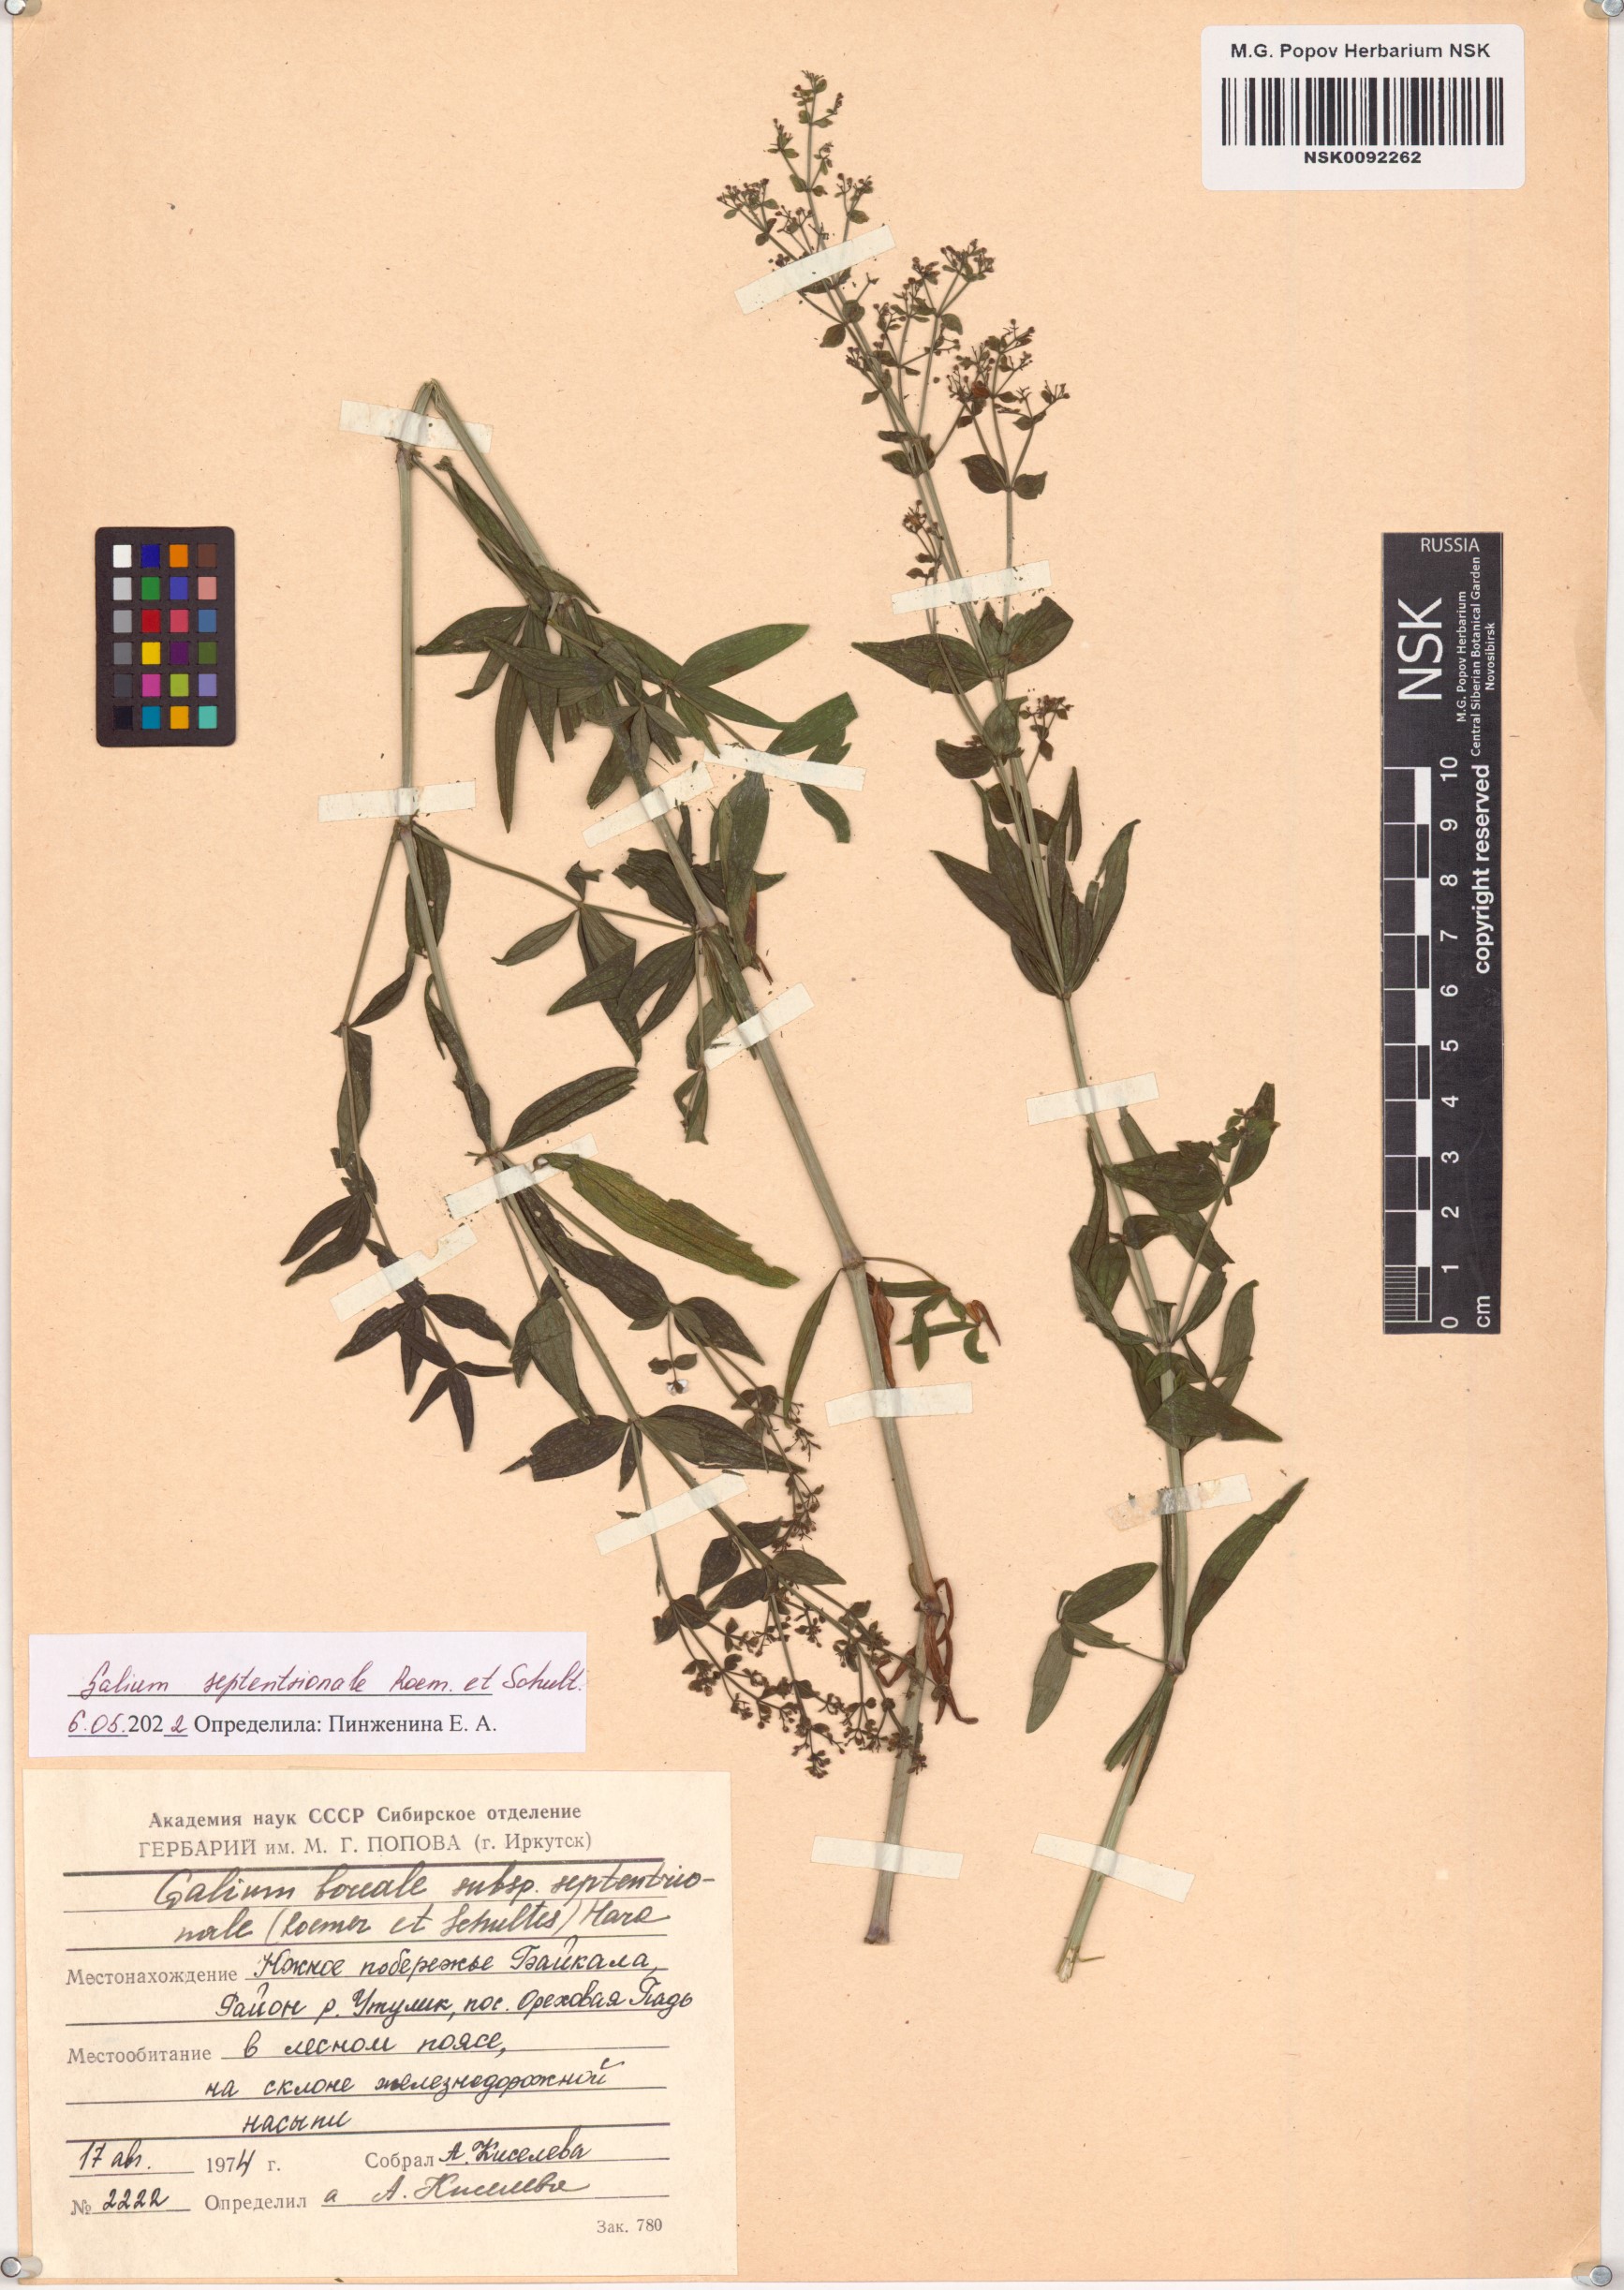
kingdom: Plantae
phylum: Tracheophyta
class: Magnoliopsida
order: Gentianales
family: Rubiaceae
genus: Galium
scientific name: Galium boreale
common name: Northern bedstraw
